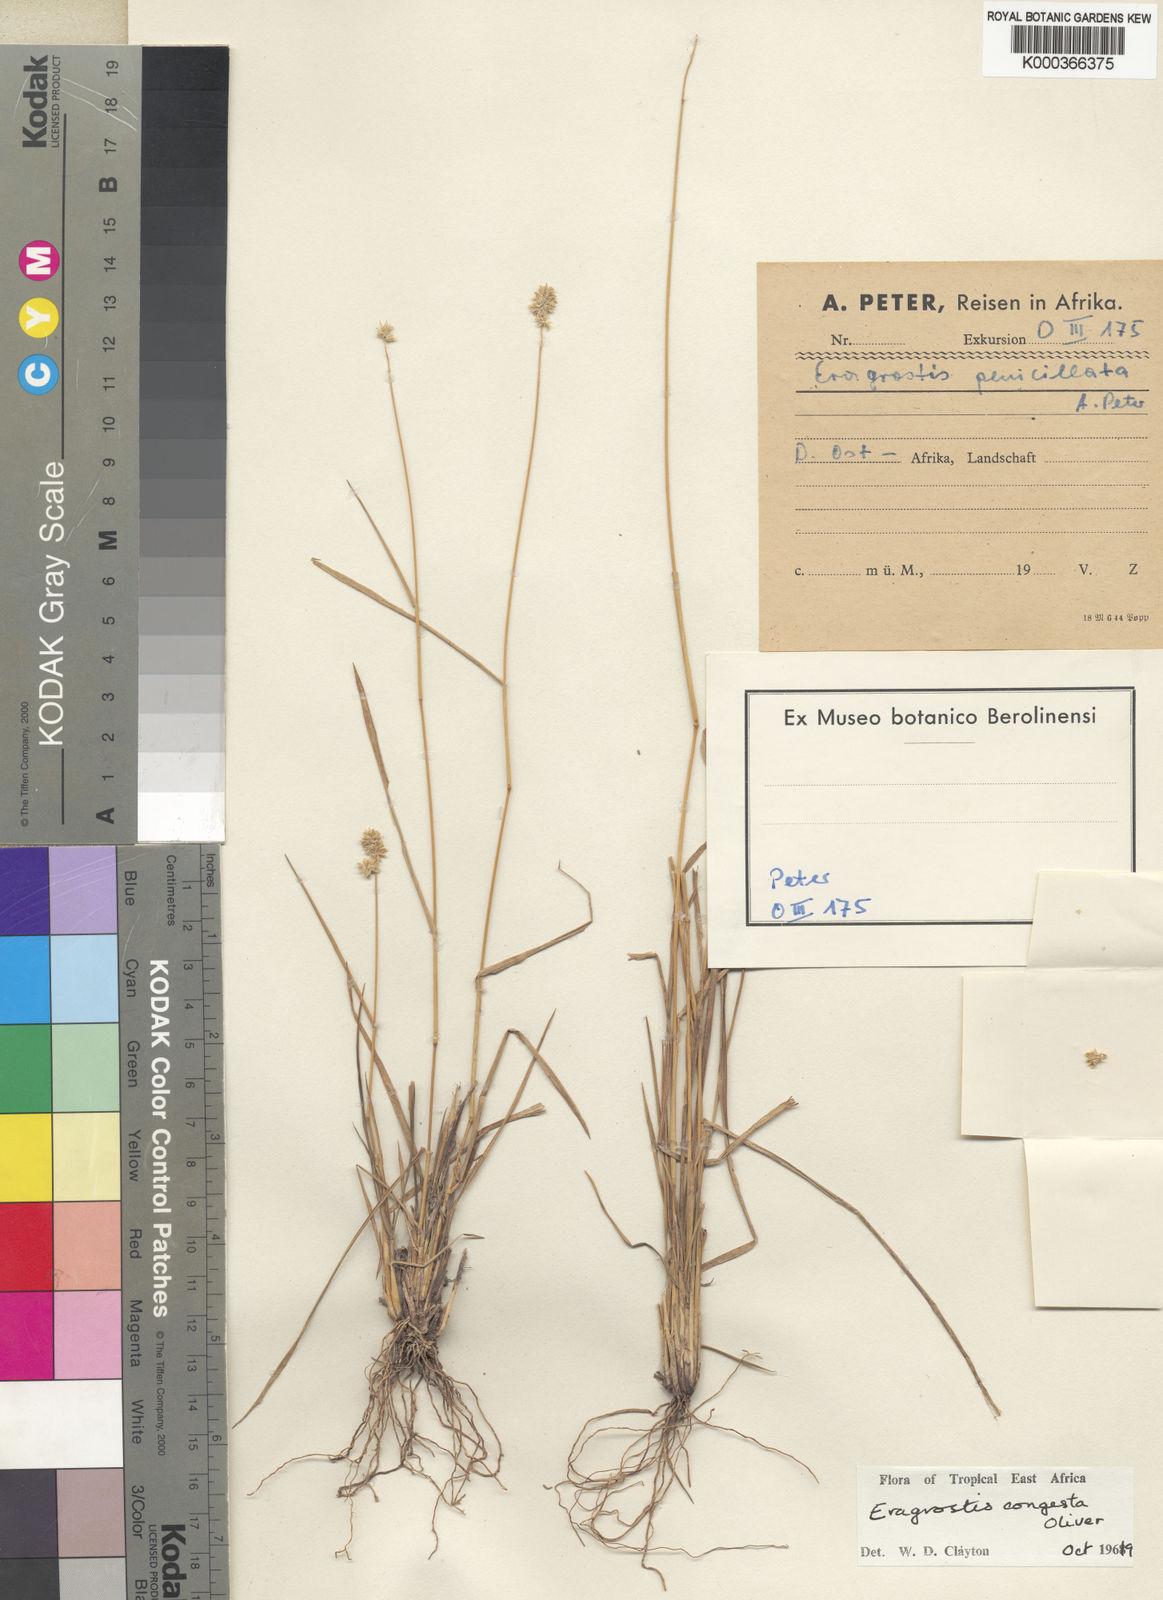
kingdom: Plantae
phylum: Tracheophyta
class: Liliopsida
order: Poales
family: Poaceae
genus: Eragrostis
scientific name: Eragrostis congesta
